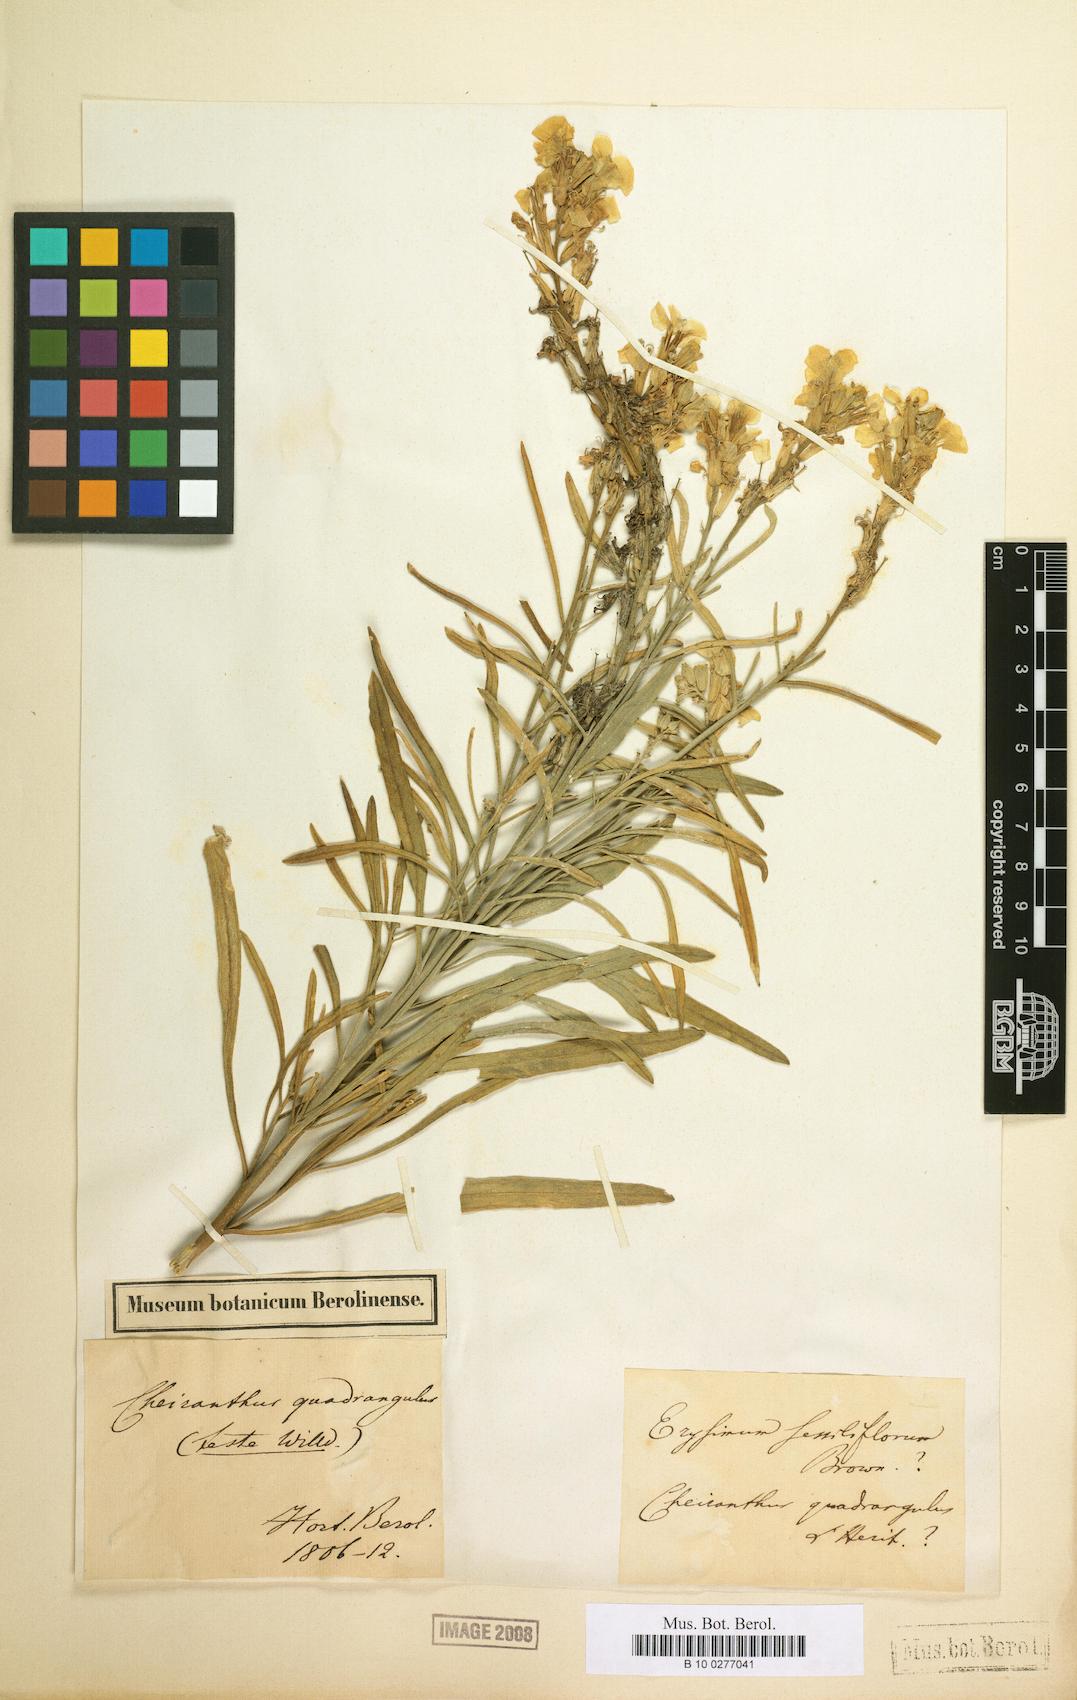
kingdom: Plantae
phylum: Tracheophyta
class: Magnoliopsida
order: Brassicales
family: Brassicaceae
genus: Erysimum
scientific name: Erysimum montanum
